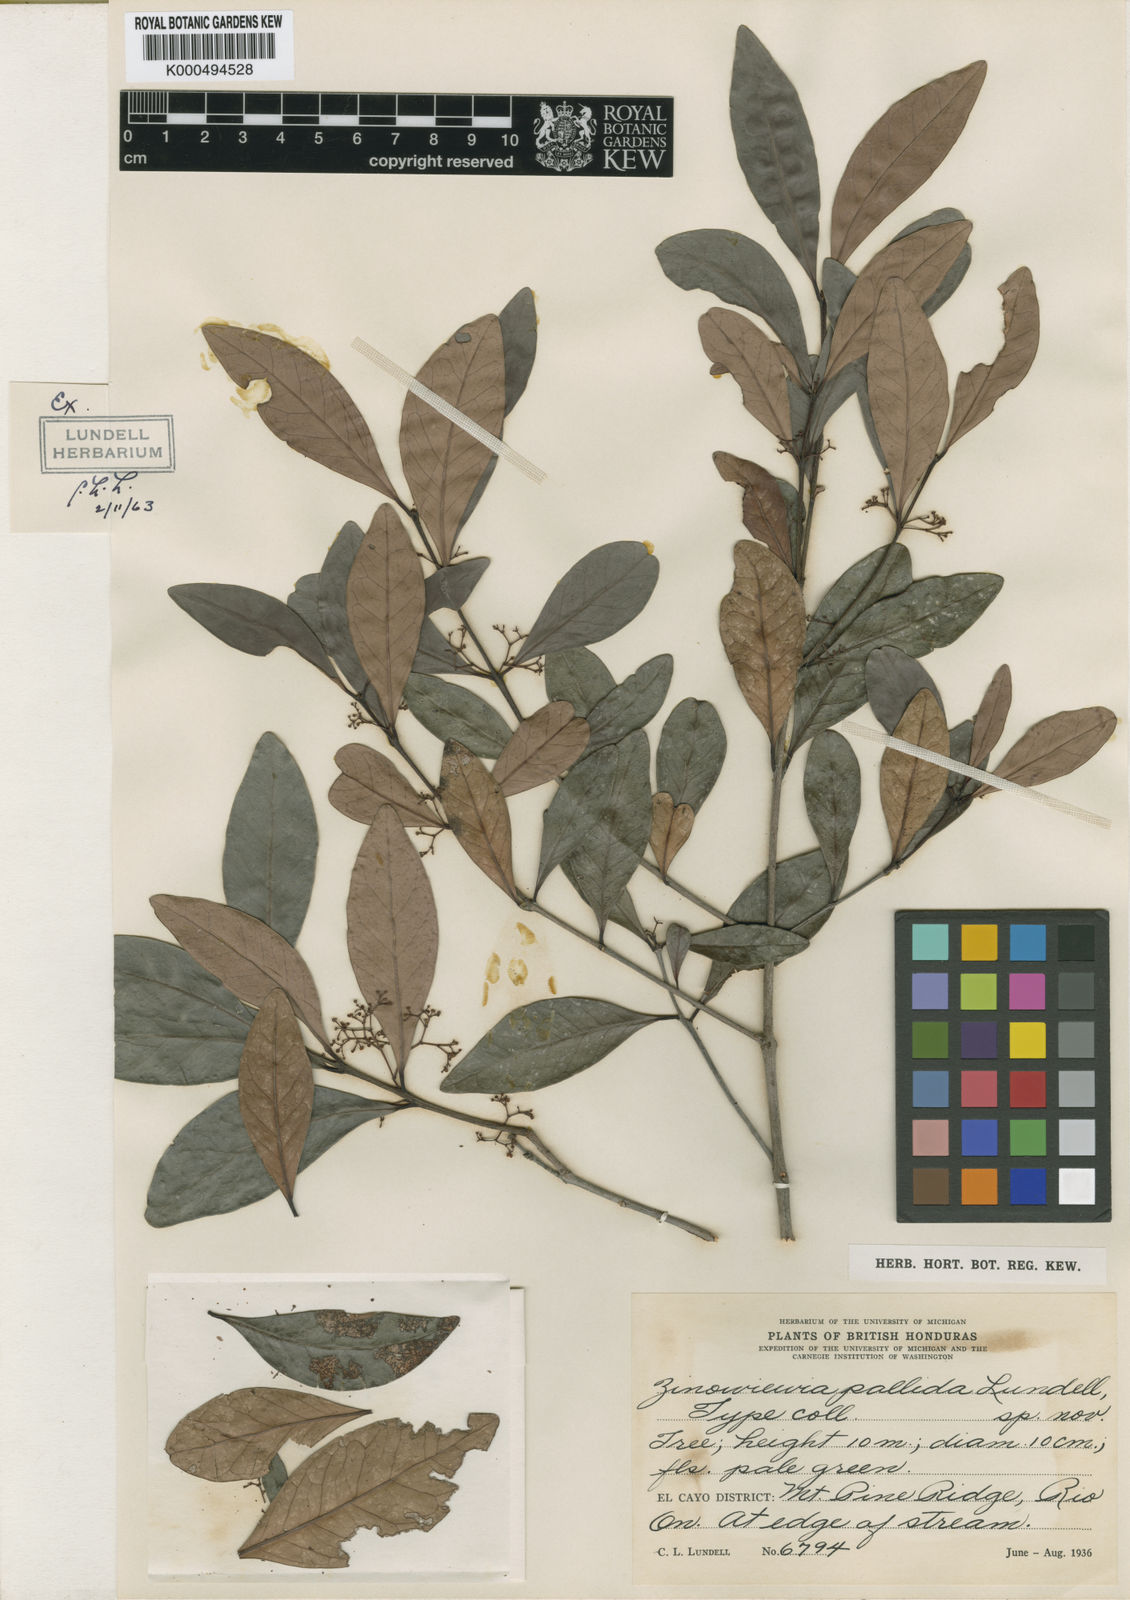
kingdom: Plantae
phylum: Tracheophyta
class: Magnoliopsida
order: Celastrales
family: Celastraceae
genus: Zinowiewia
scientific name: Zinowiewia pallida
